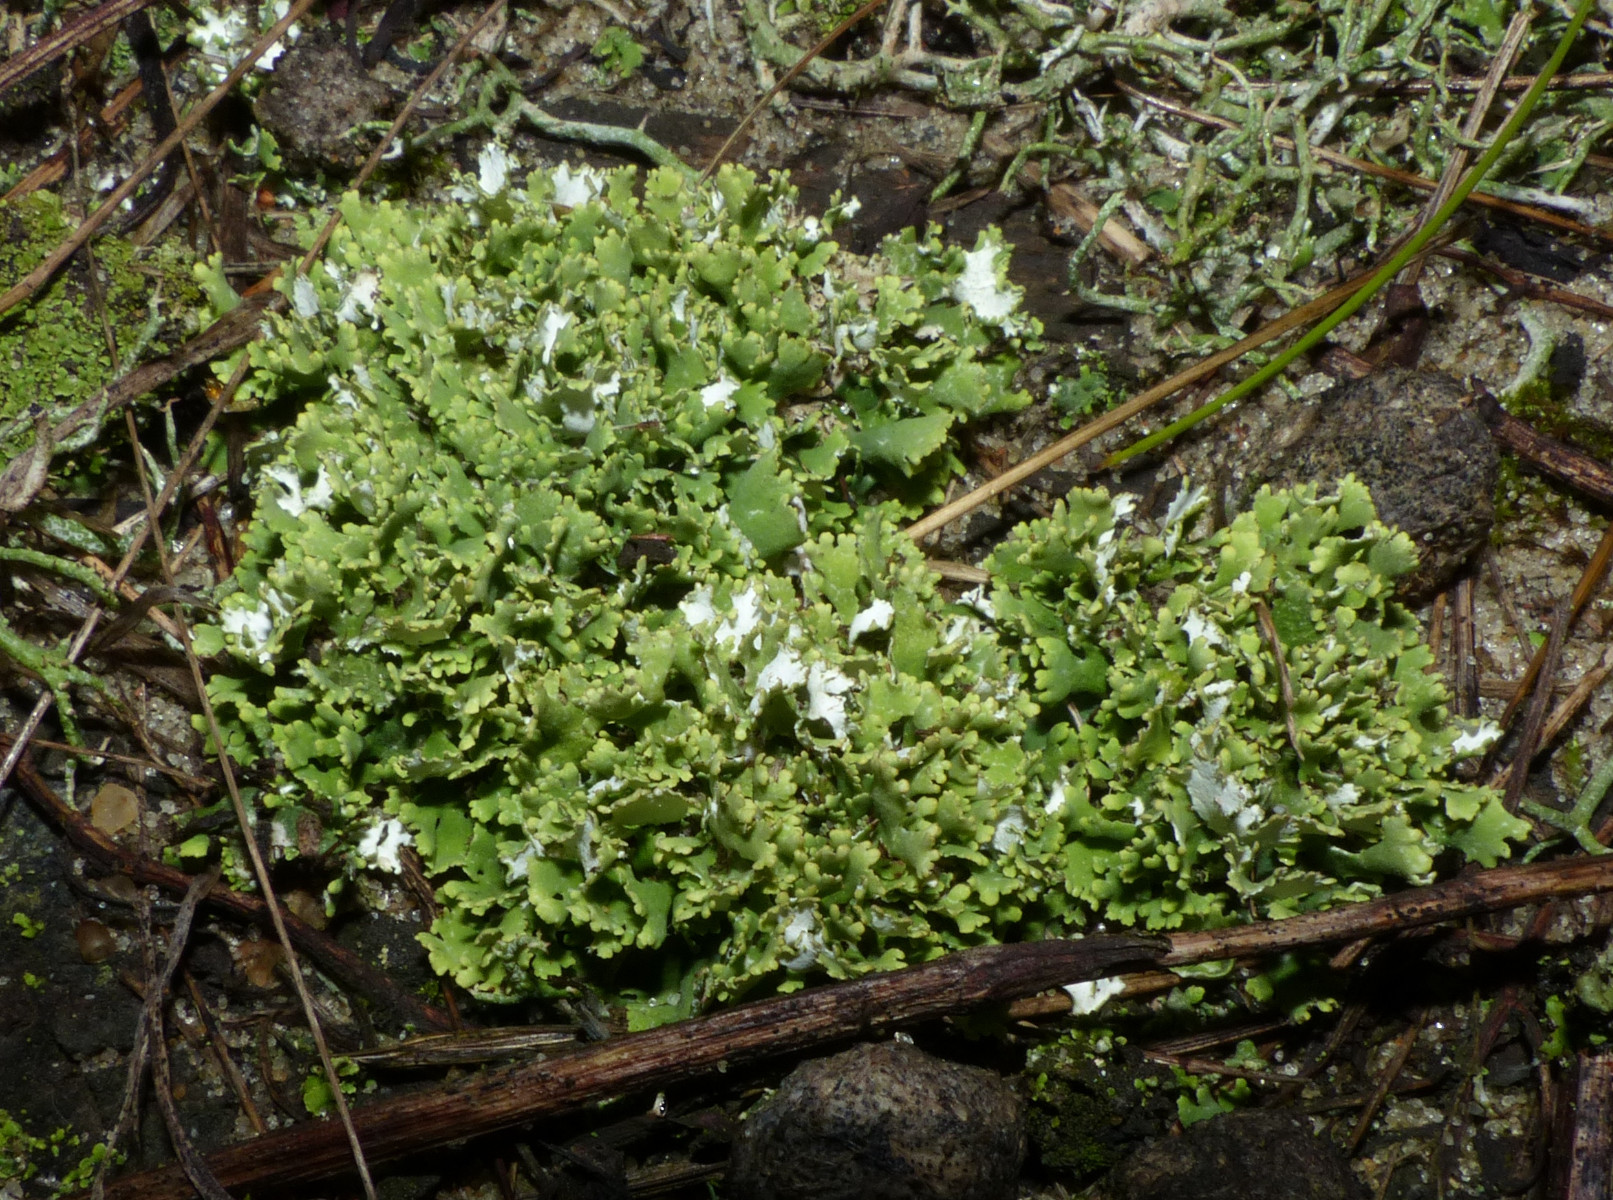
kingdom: Fungi
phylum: Ascomycota
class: Lecanoromycetes
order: Lecanorales
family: Cladoniaceae
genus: Cladonia
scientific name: Cladonia foliacea
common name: fliget bægerlav
